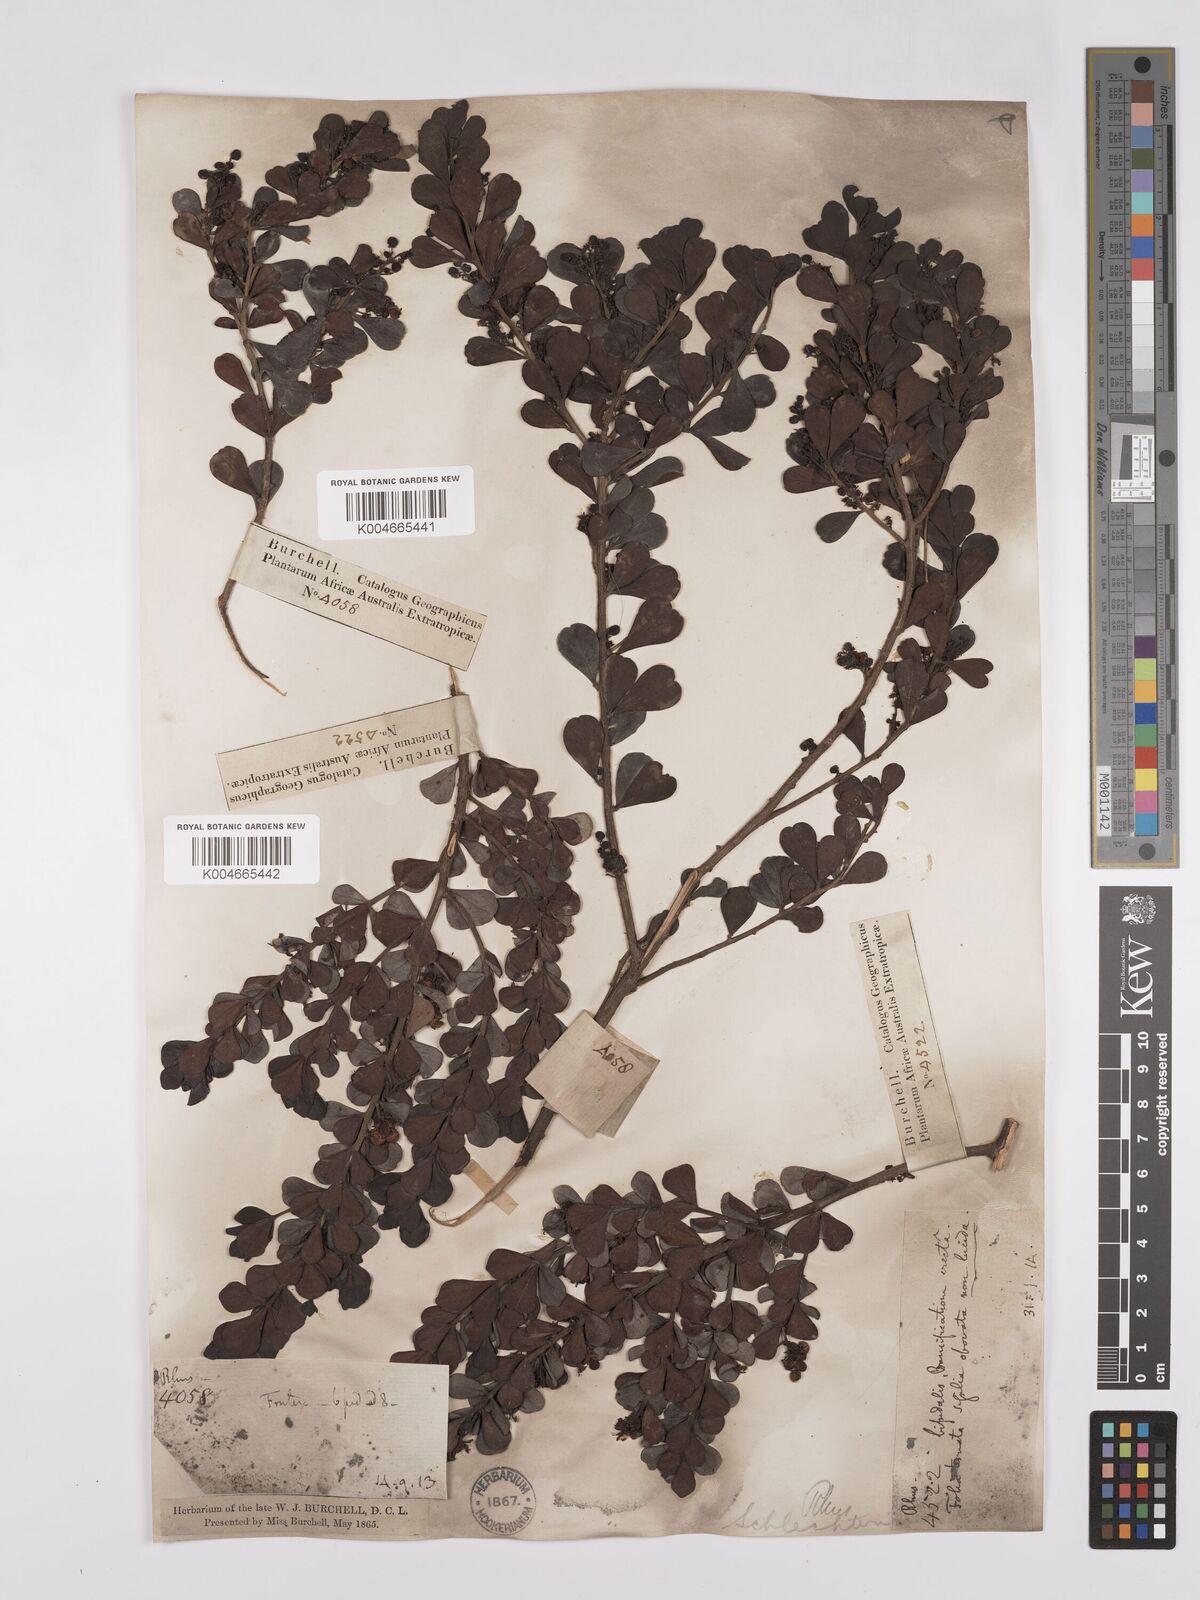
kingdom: Plantae
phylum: Tracheophyta
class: Magnoliopsida
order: Sapindales
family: Anacardiaceae
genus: Searsia
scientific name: Searsia lucida
